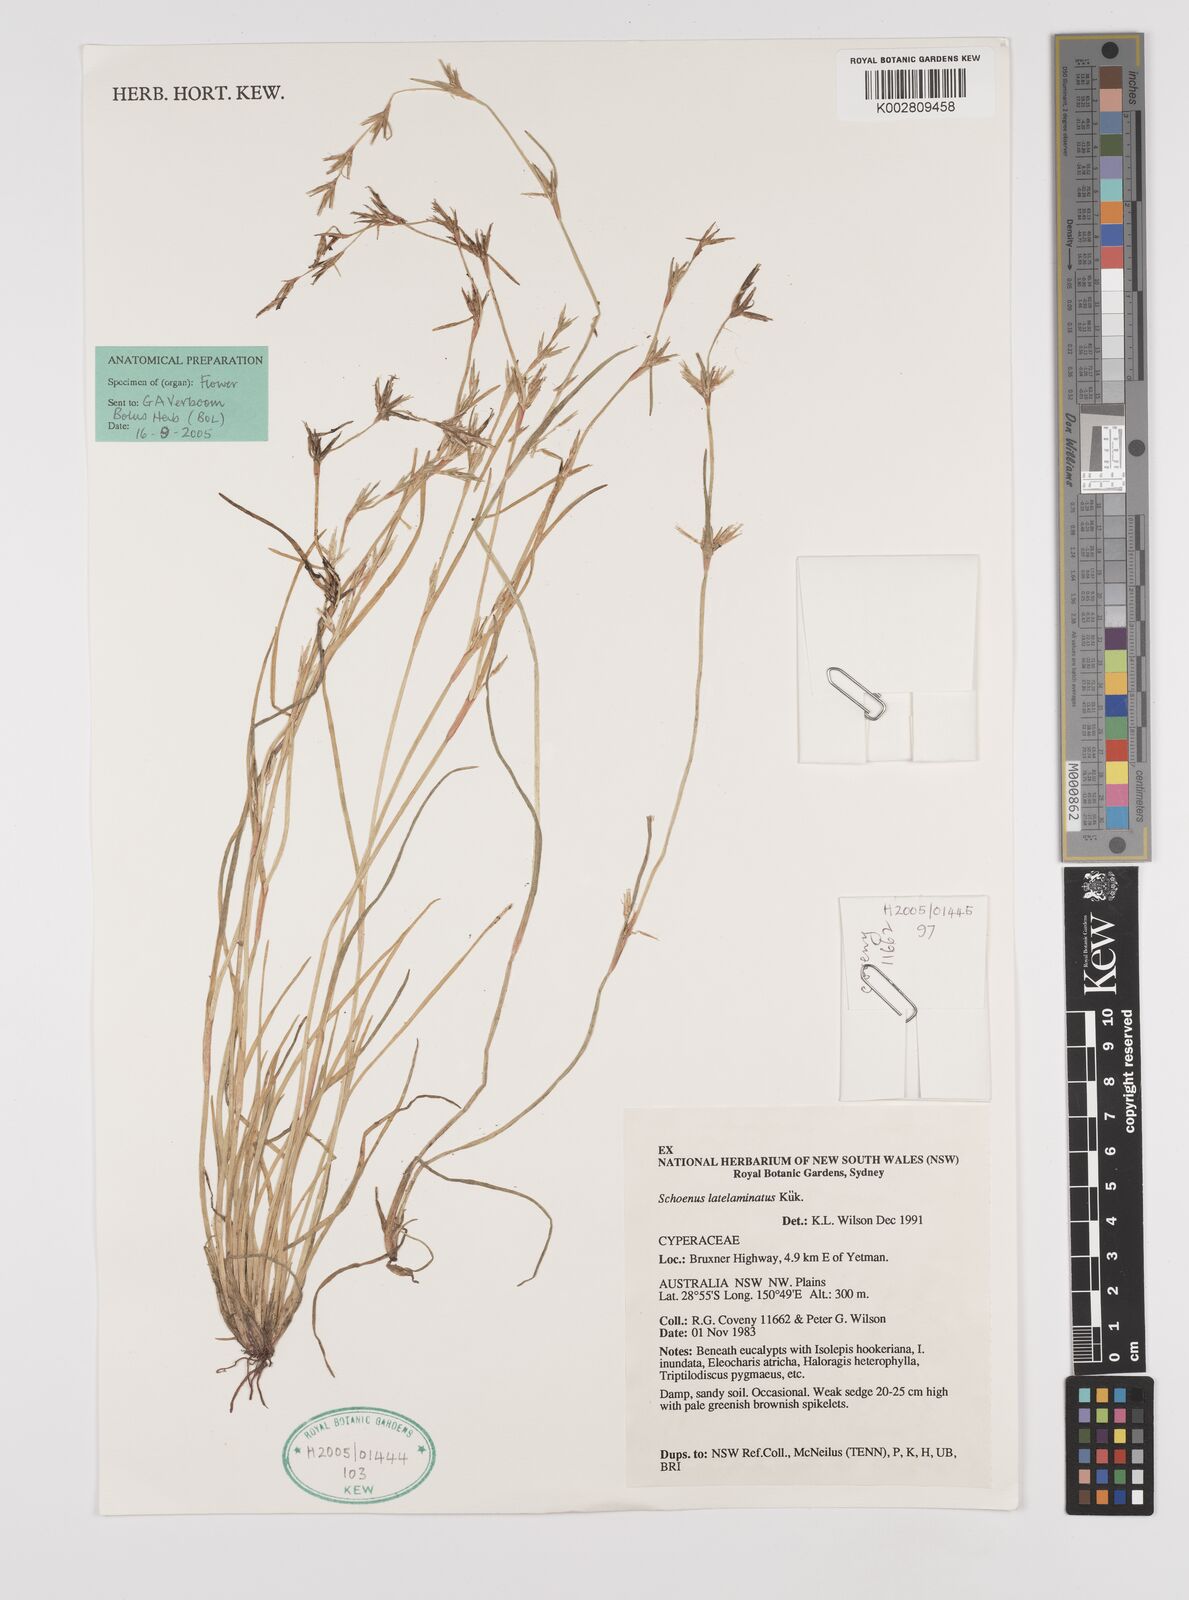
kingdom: Plantae
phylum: Tracheophyta
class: Liliopsida
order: Poales
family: Cyperaceae
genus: Schoenus
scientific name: Schoenus latelaminatus
